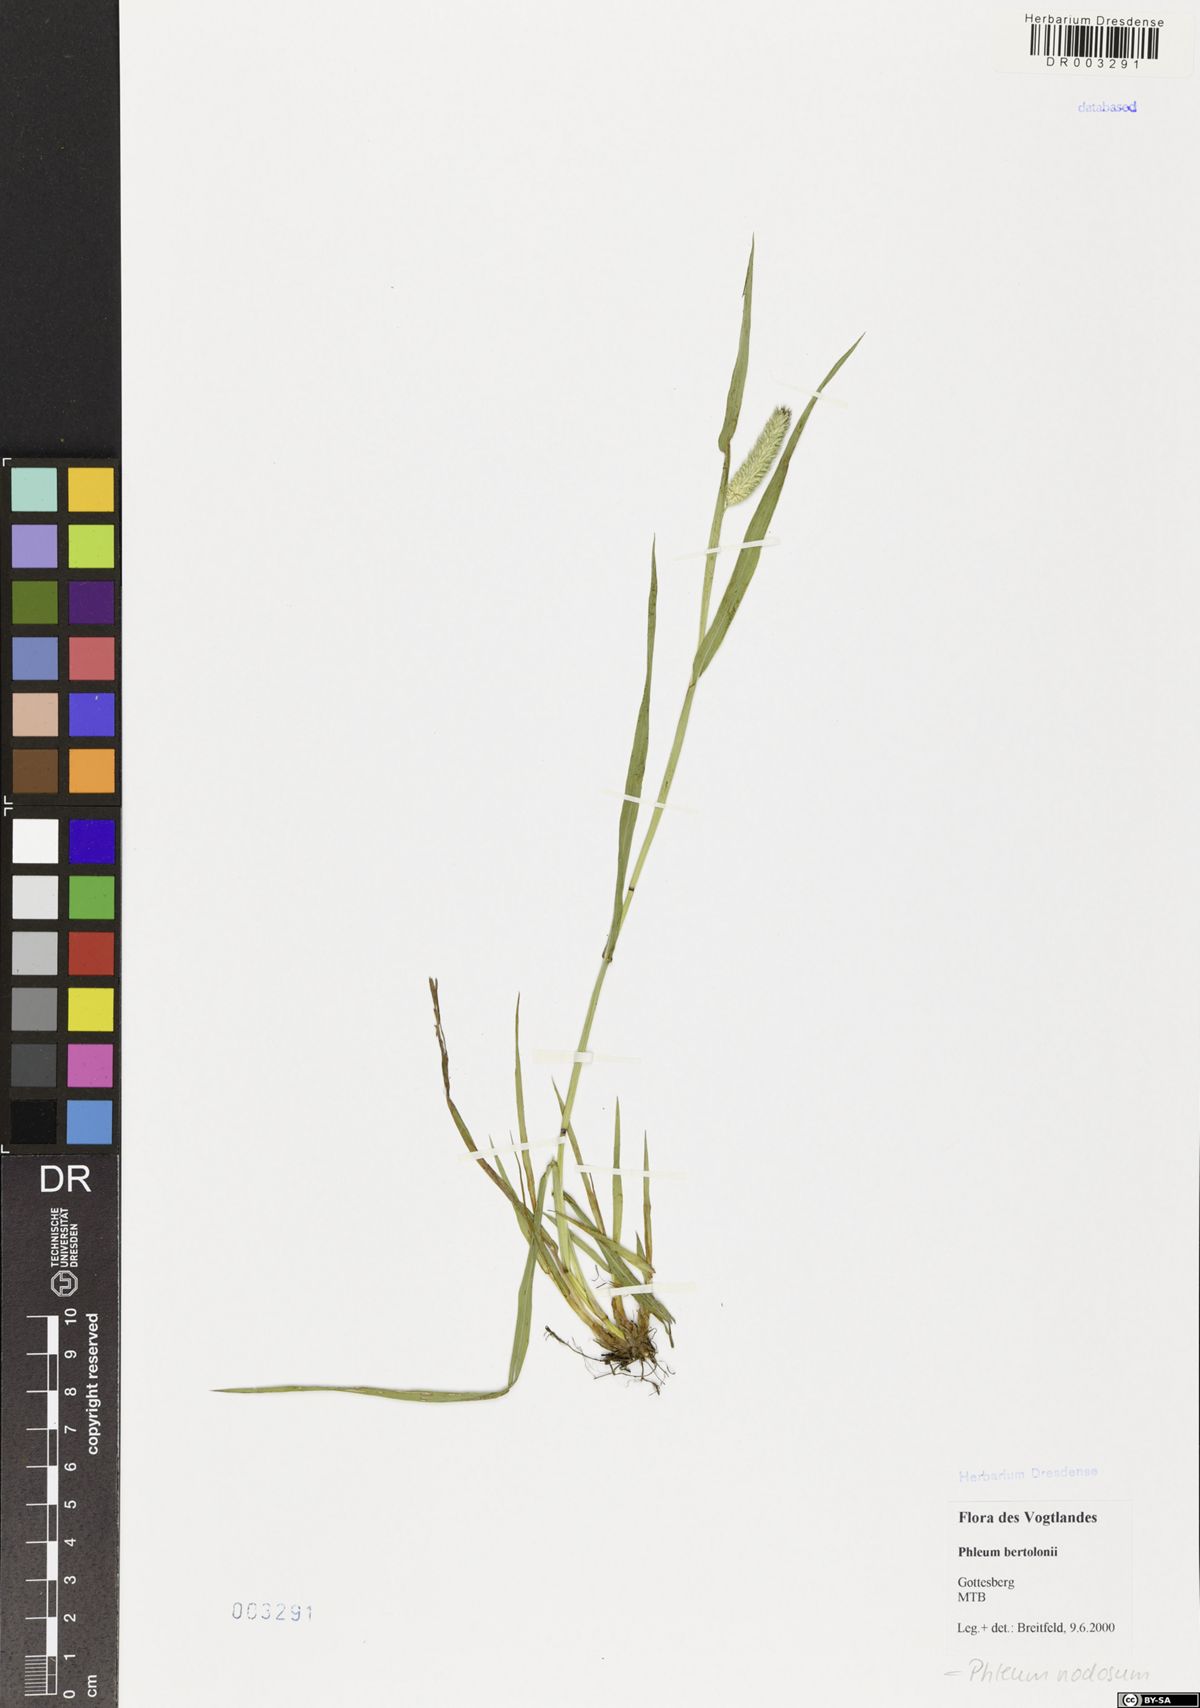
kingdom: Plantae
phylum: Tracheophyta
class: Liliopsida
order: Poales
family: Poaceae
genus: Phleum
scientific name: Phleum pratense
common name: Timothy grass
